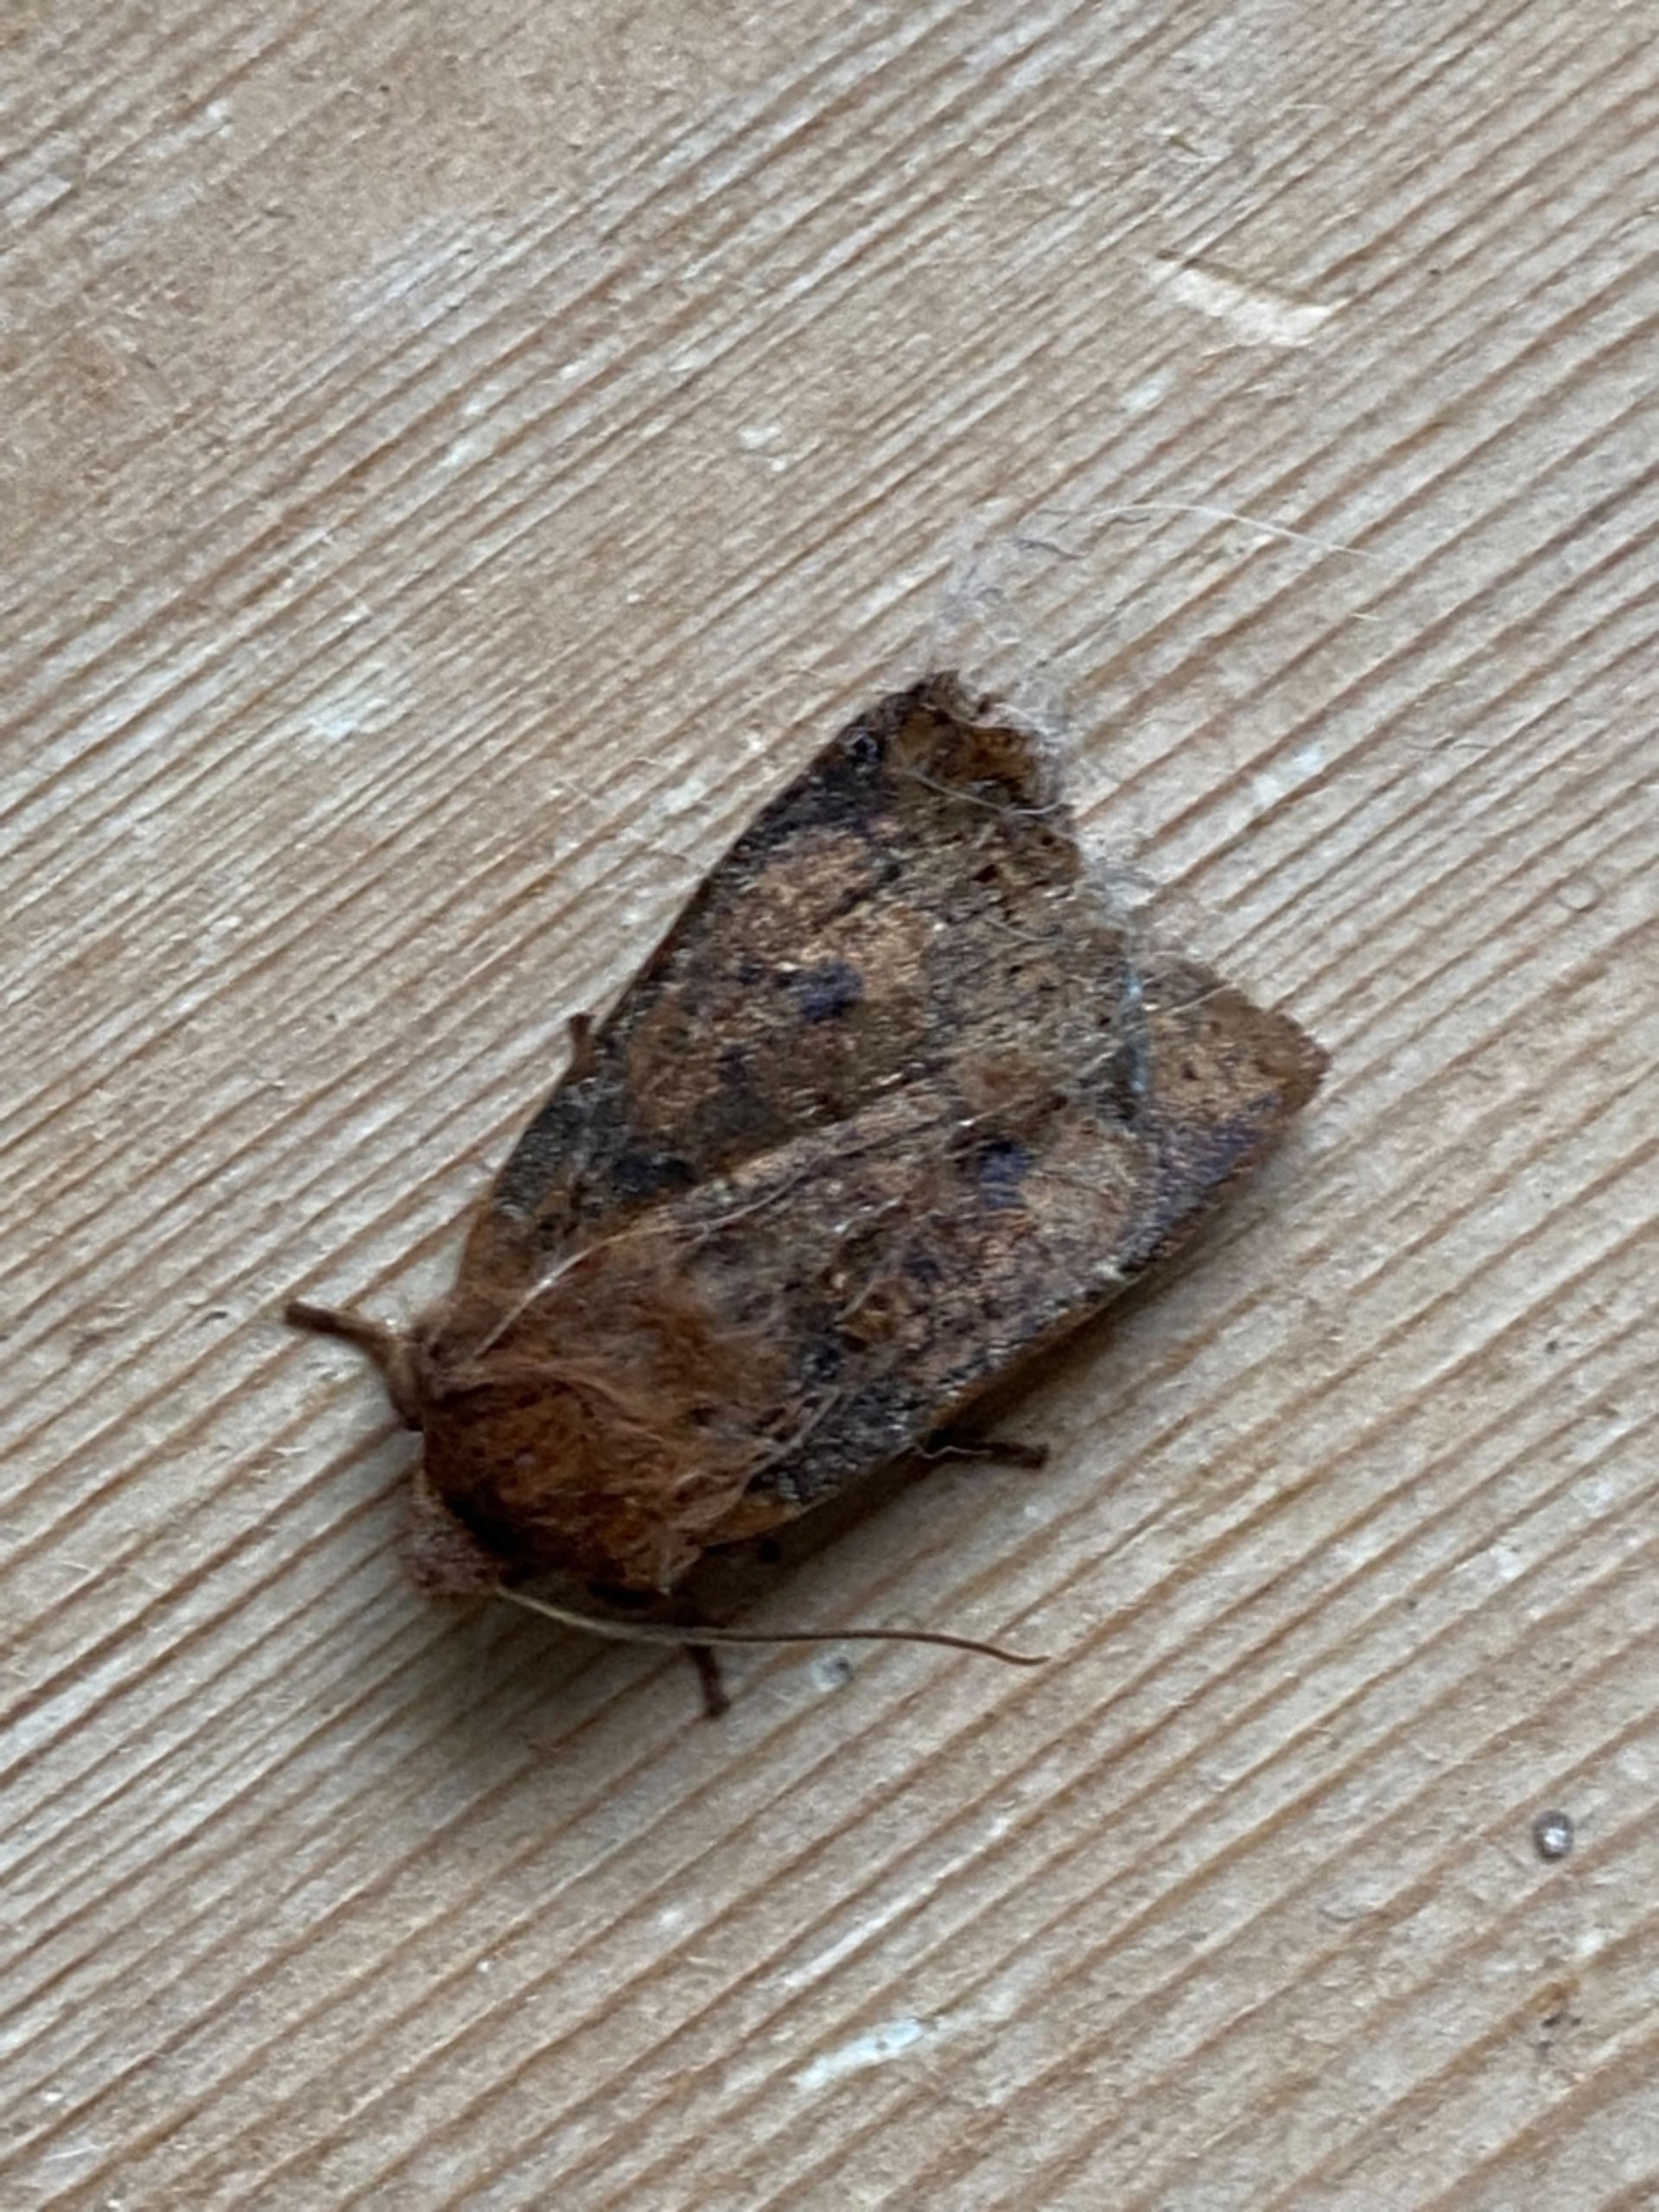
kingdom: Animalia
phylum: Arthropoda
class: Insecta
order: Lepidoptera
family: Noctuidae
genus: Conistra
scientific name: Conistra vaccinii
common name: Blåbærugle
